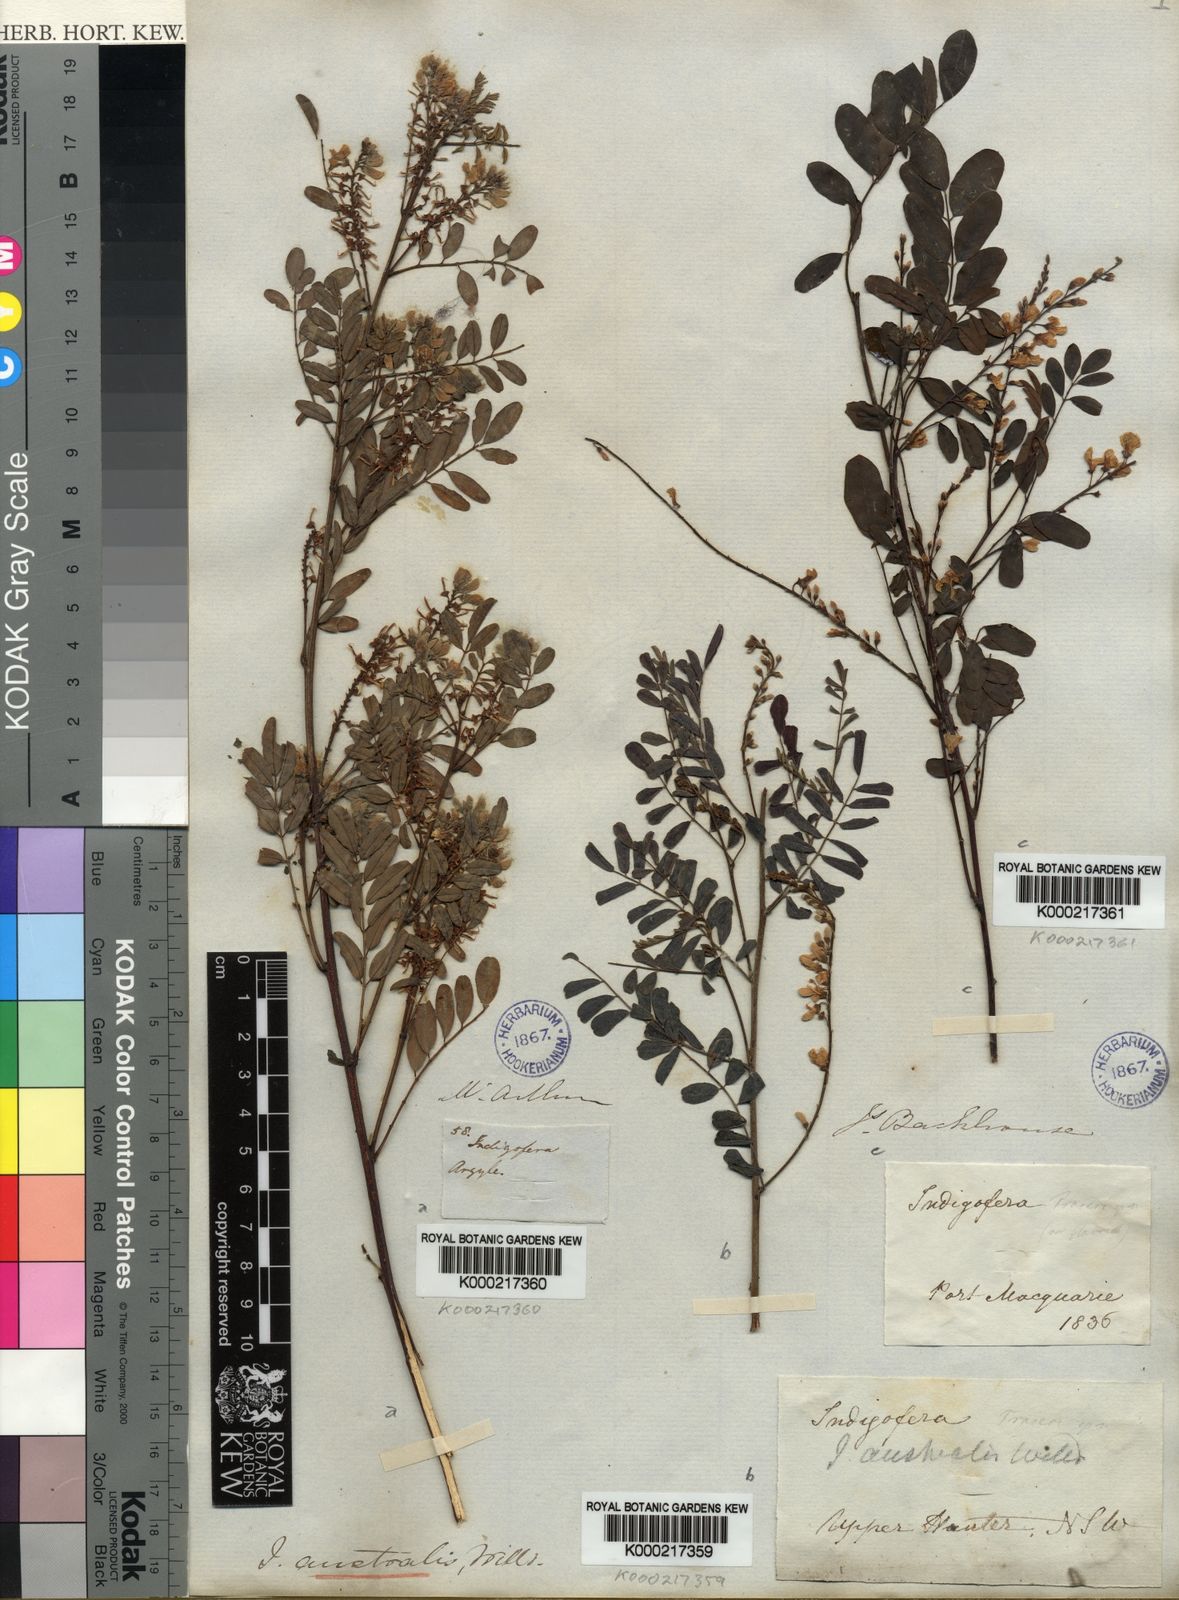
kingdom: Plantae
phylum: Tracheophyta
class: Magnoliopsida
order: Fabales
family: Fabaceae
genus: Indigofera
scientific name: Indigofera australis
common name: Australian indigo
